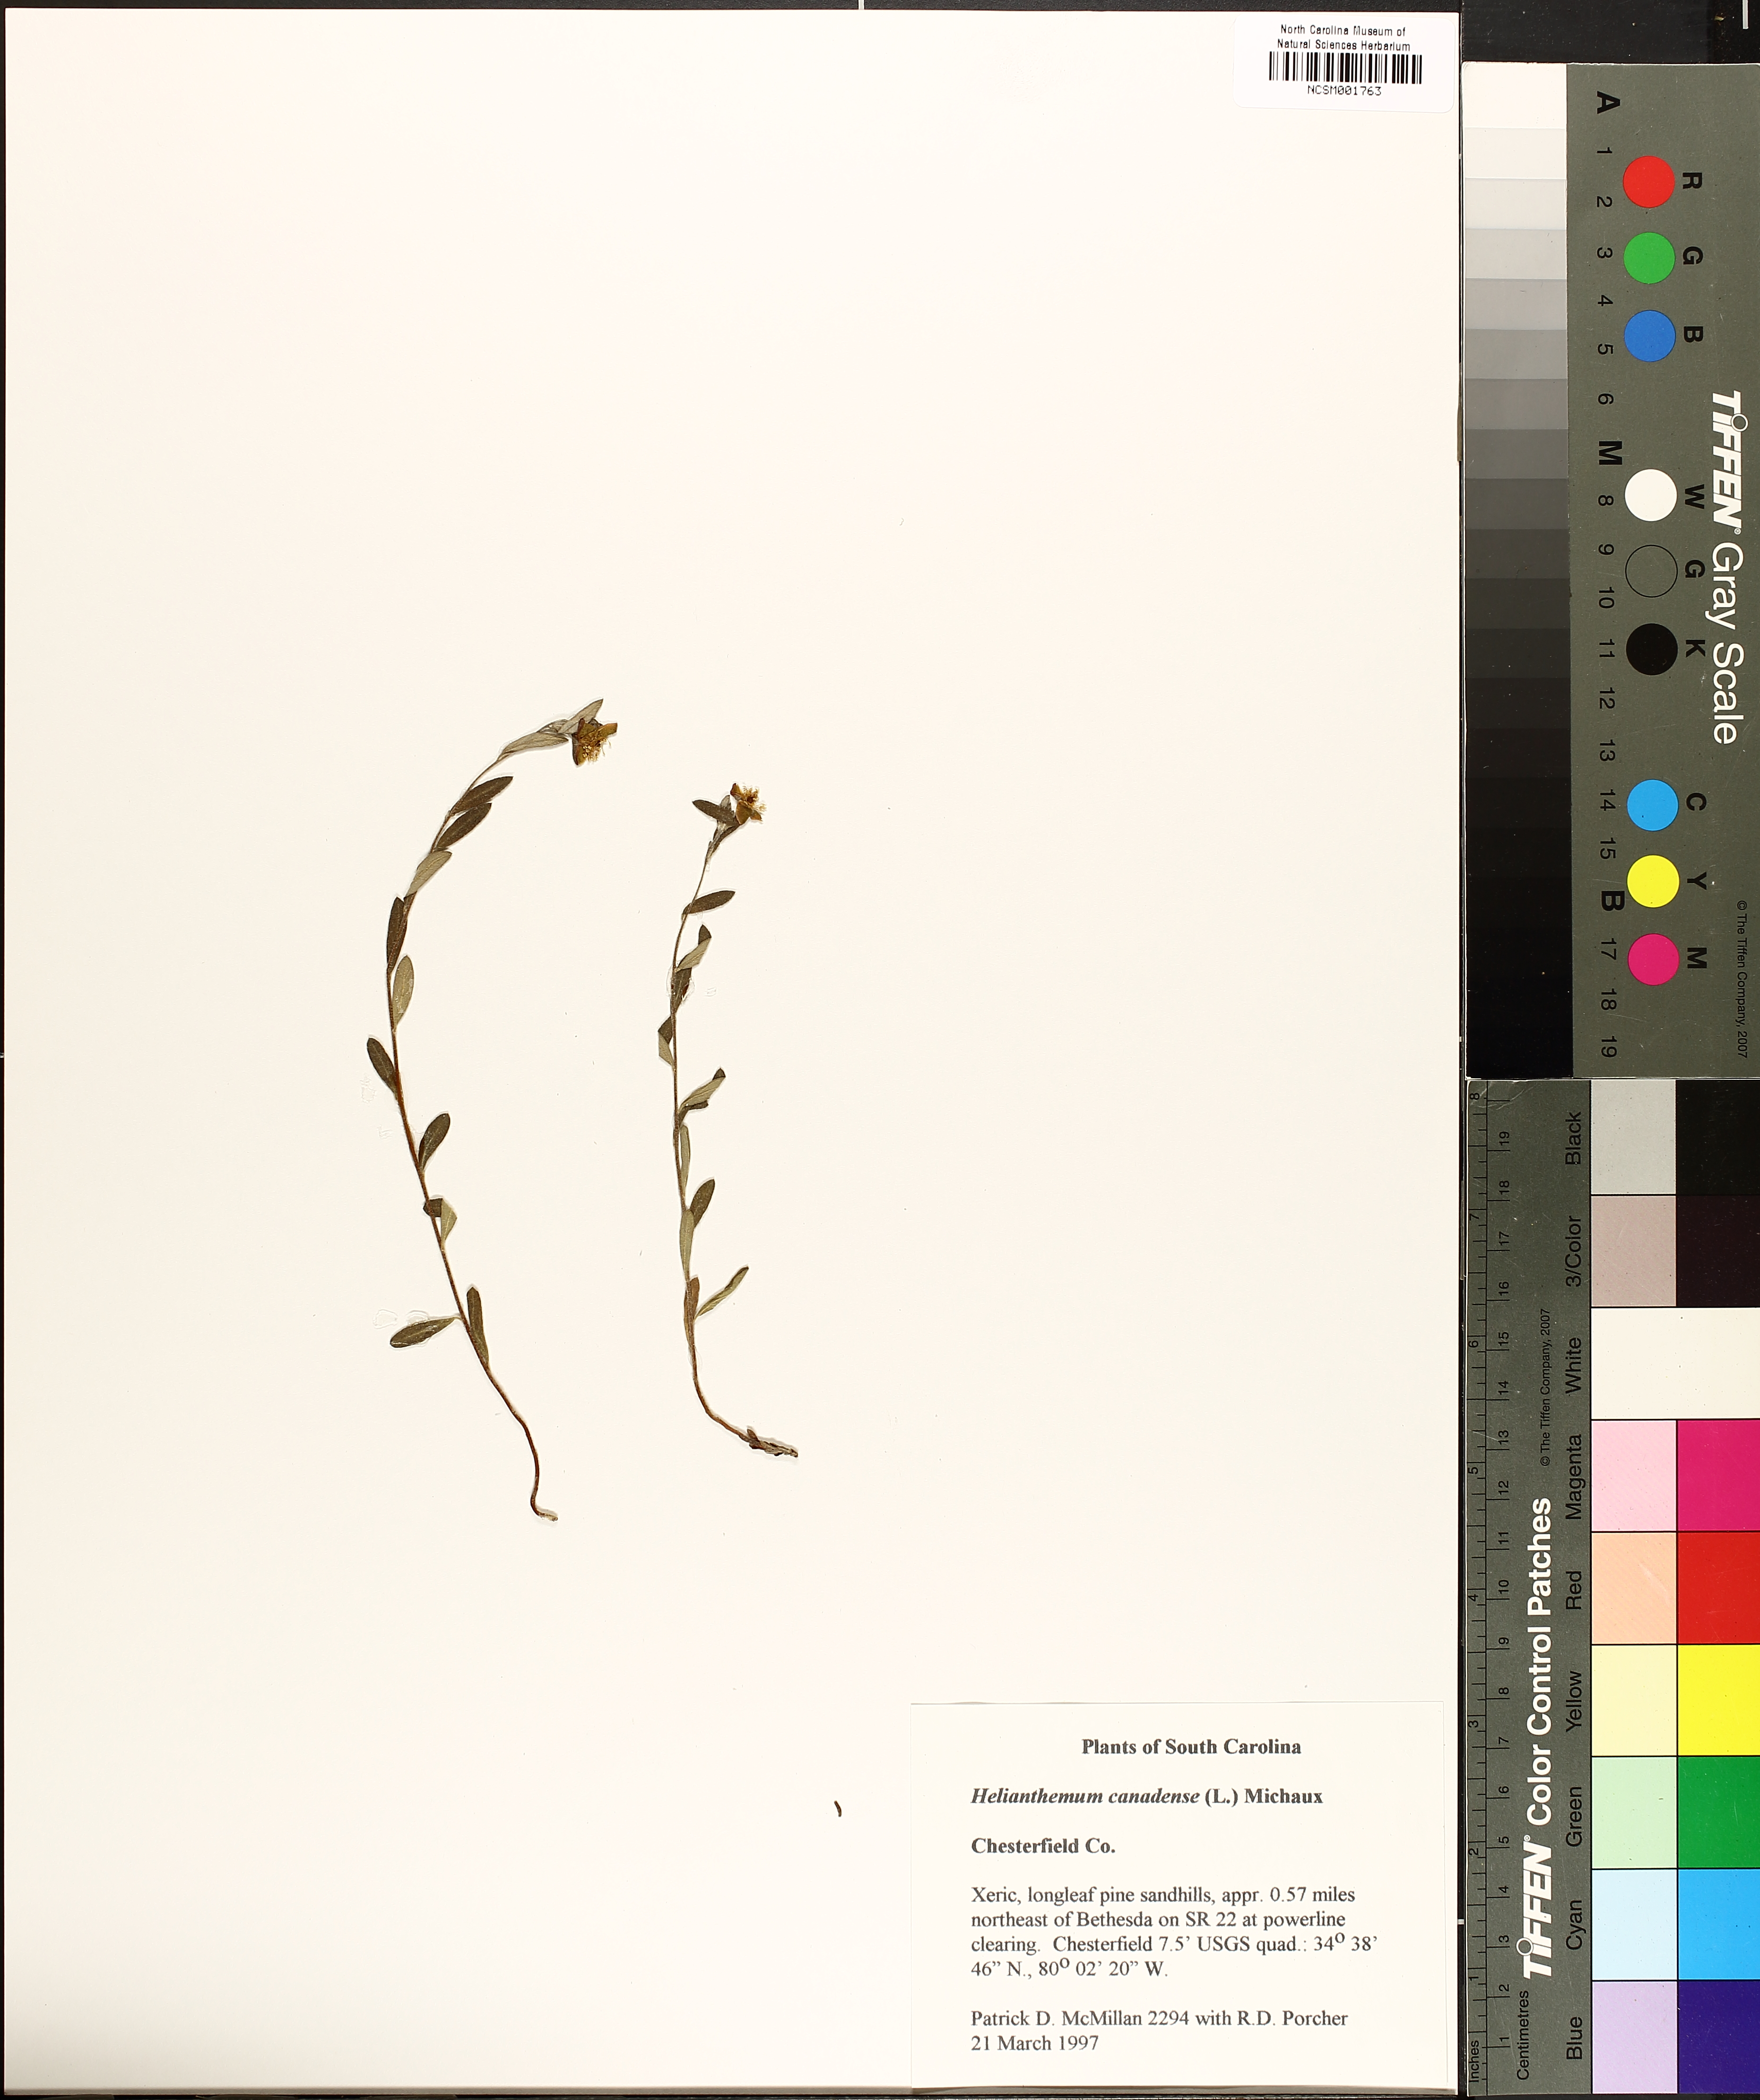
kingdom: Plantae
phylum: Tracheophyta
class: Magnoliopsida
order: Malvales
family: Cistaceae
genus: Crocanthemum
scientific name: Crocanthemum canadense
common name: Canada frostweed
